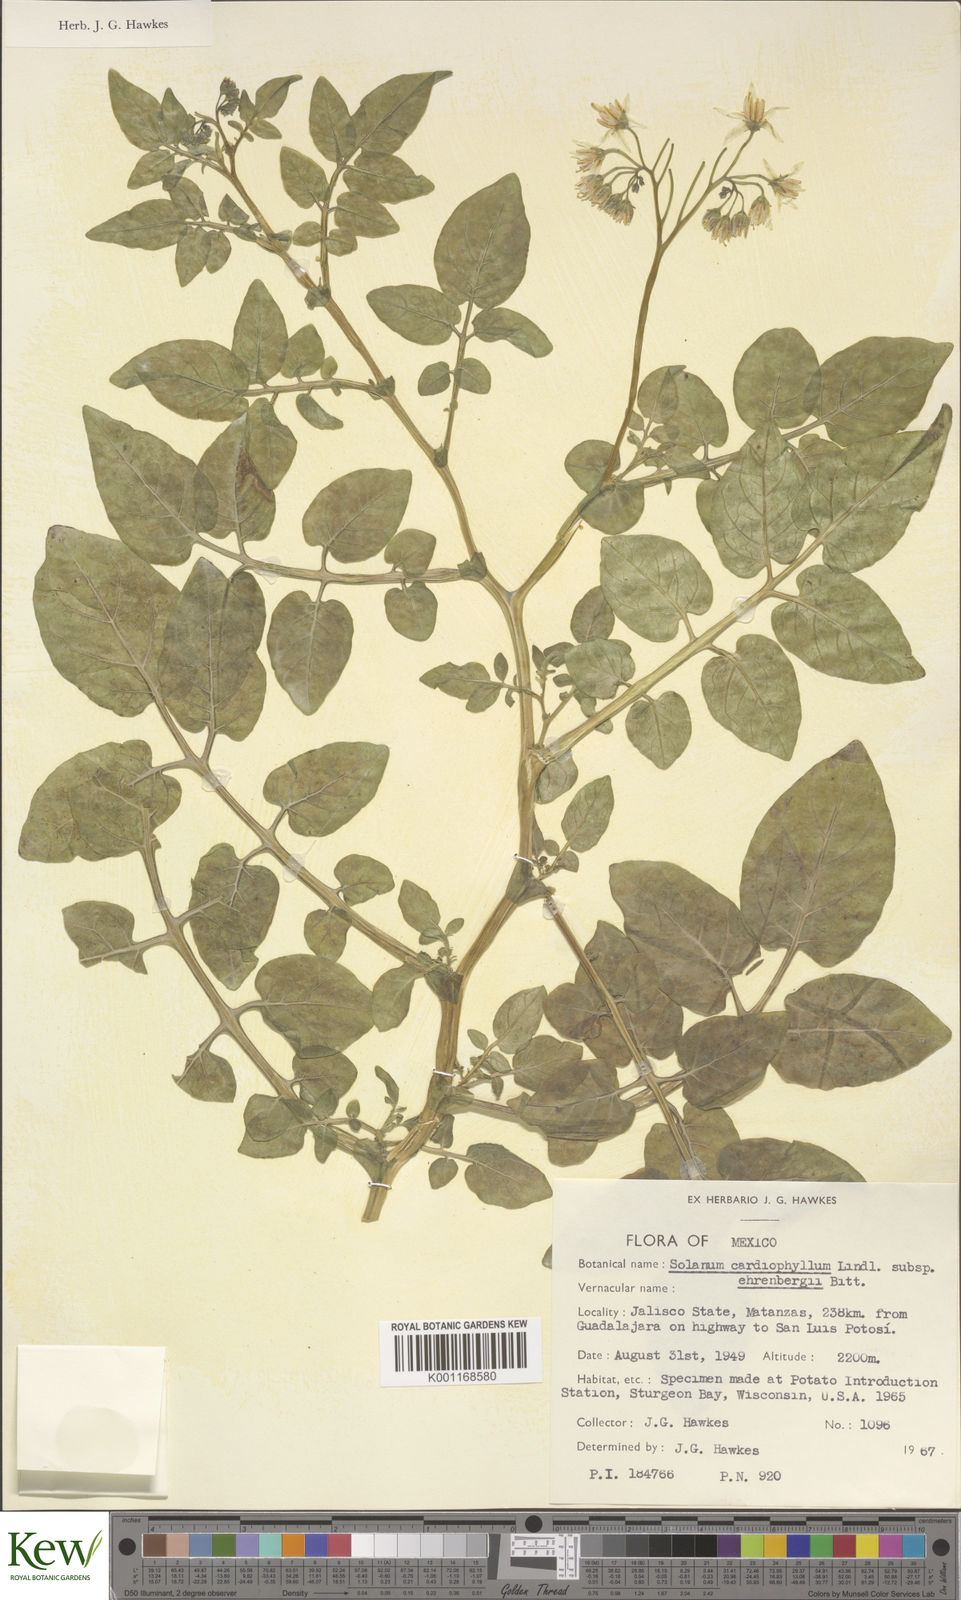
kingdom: Plantae
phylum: Tracheophyta
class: Magnoliopsida
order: Solanales
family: Solanaceae
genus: Solanum
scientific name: Solanum cardiophyllum
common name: Heartleaf horsenettle
